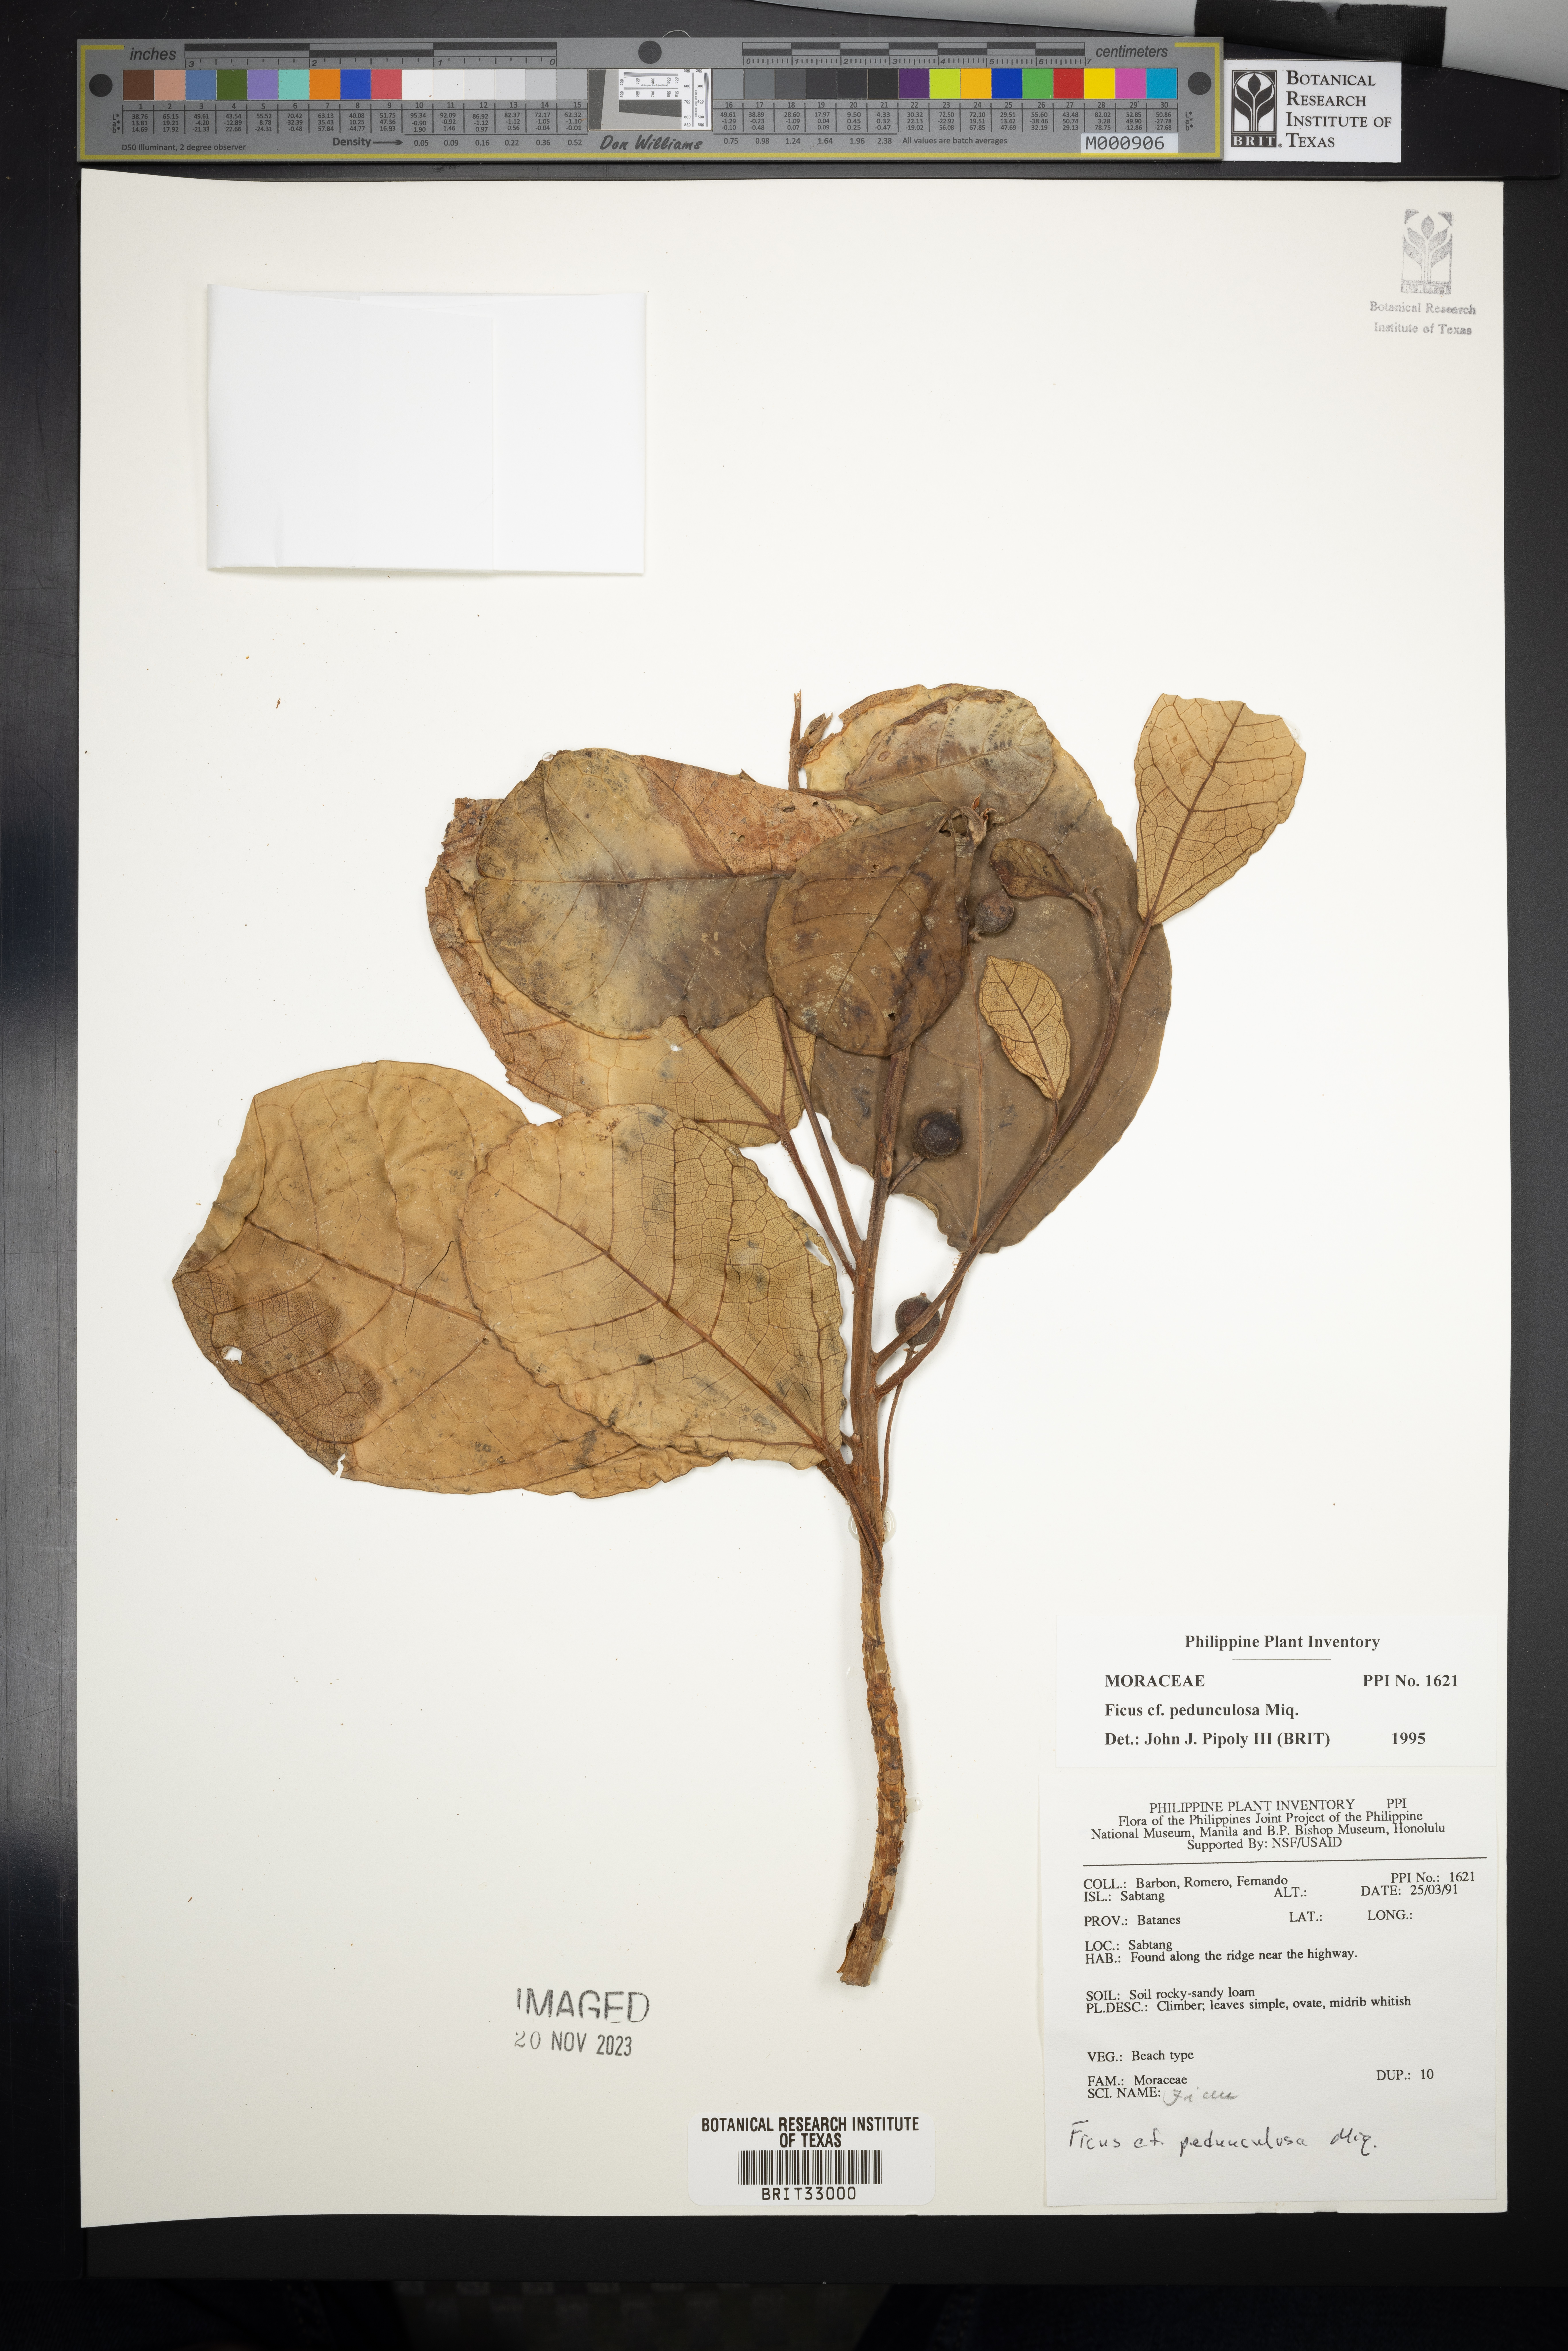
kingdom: Plantae
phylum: Tracheophyta
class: Magnoliopsida
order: Rosales
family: Moraceae
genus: Ficus
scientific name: Ficus pedunculosa
